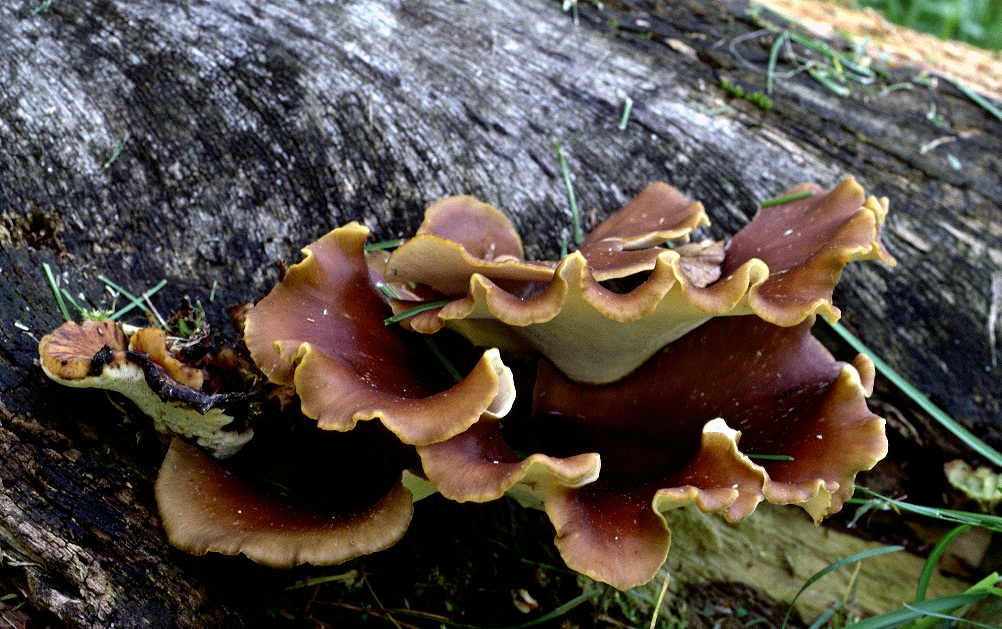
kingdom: Fungi
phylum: Basidiomycota
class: Agaricomycetes
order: Polyporales
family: Polyporaceae
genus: Picipes
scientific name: Picipes badius
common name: kastaniebrun stilkporesvamp
